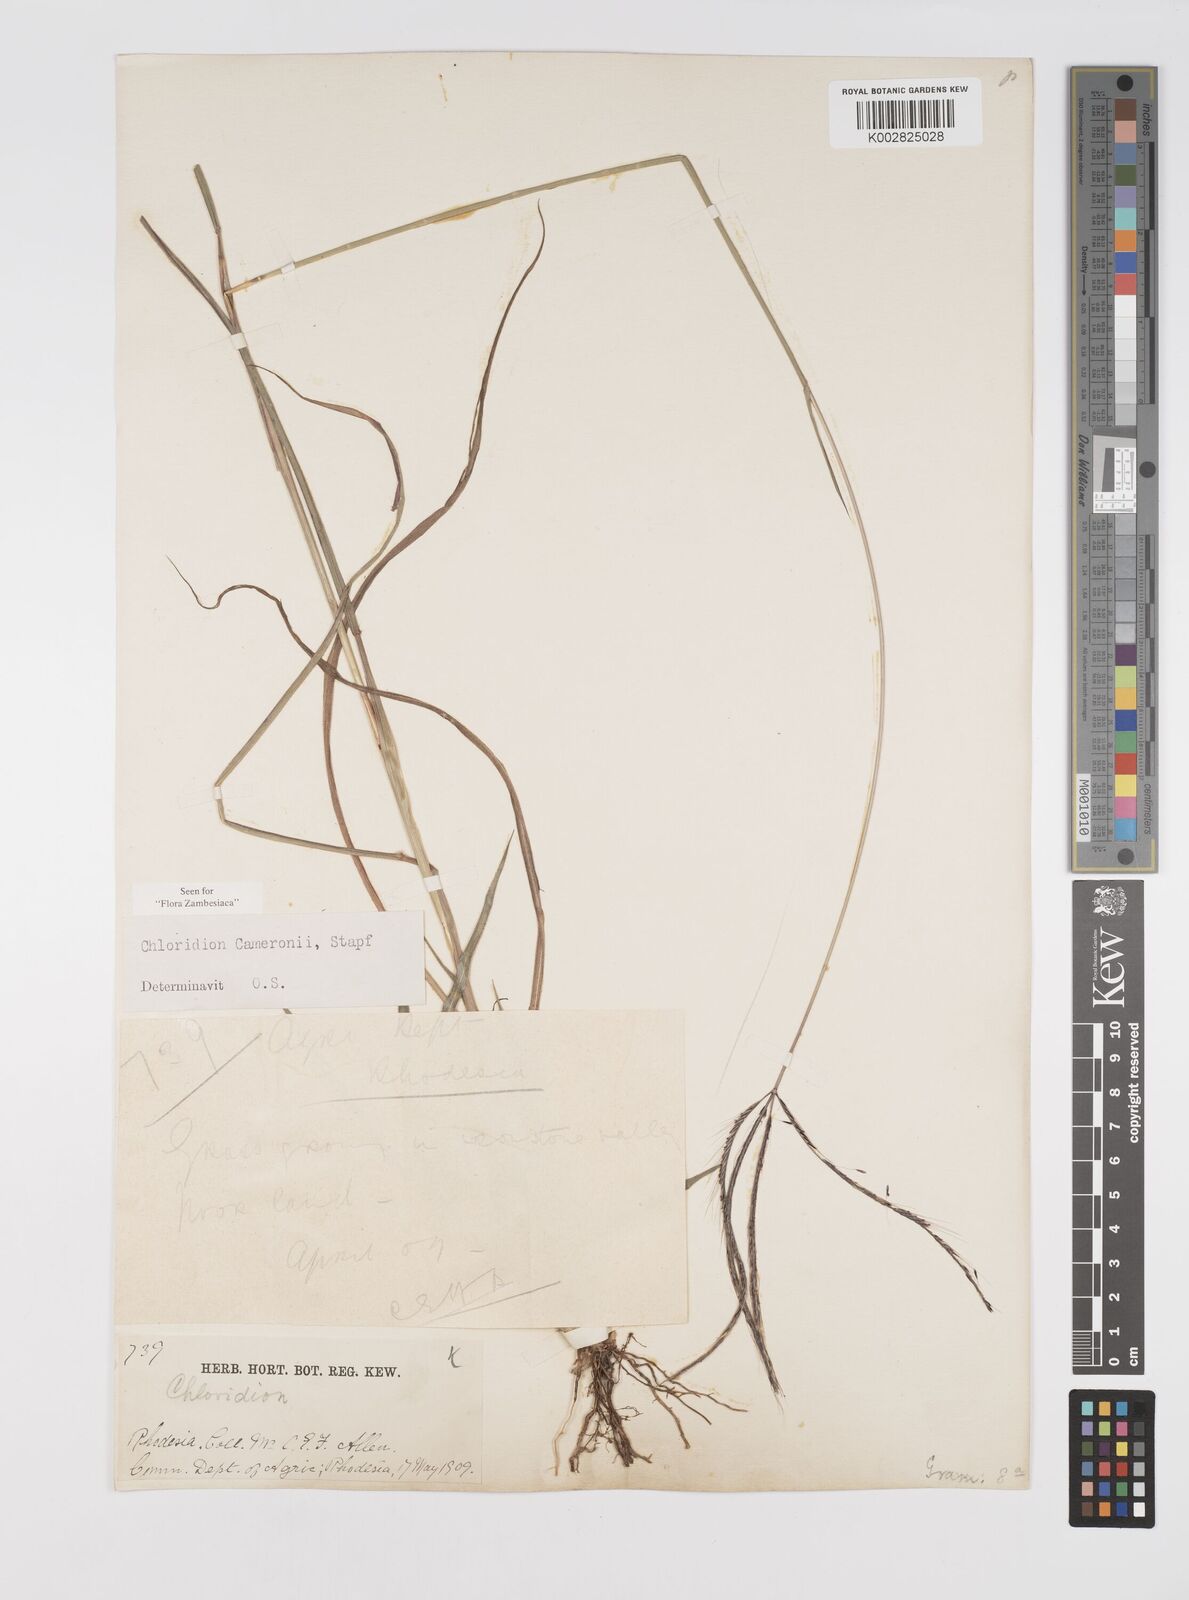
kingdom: Plantae
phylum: Tracheophyta
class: Liliopsida
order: Poales
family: Poaceae
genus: Stereochlaena
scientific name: Stereochlaena cameronii
